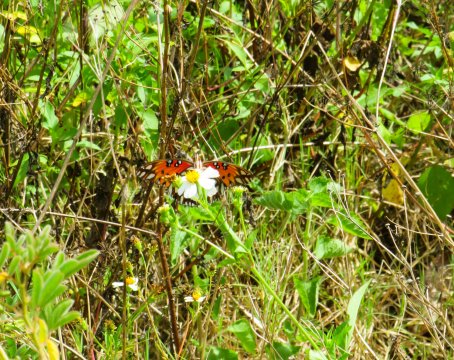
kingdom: Animalia
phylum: Arthropoda
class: Insecta
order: Lepidoptera
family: Nymphalidae
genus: Dione
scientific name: Dione vanillae
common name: Gulf Fritillary
